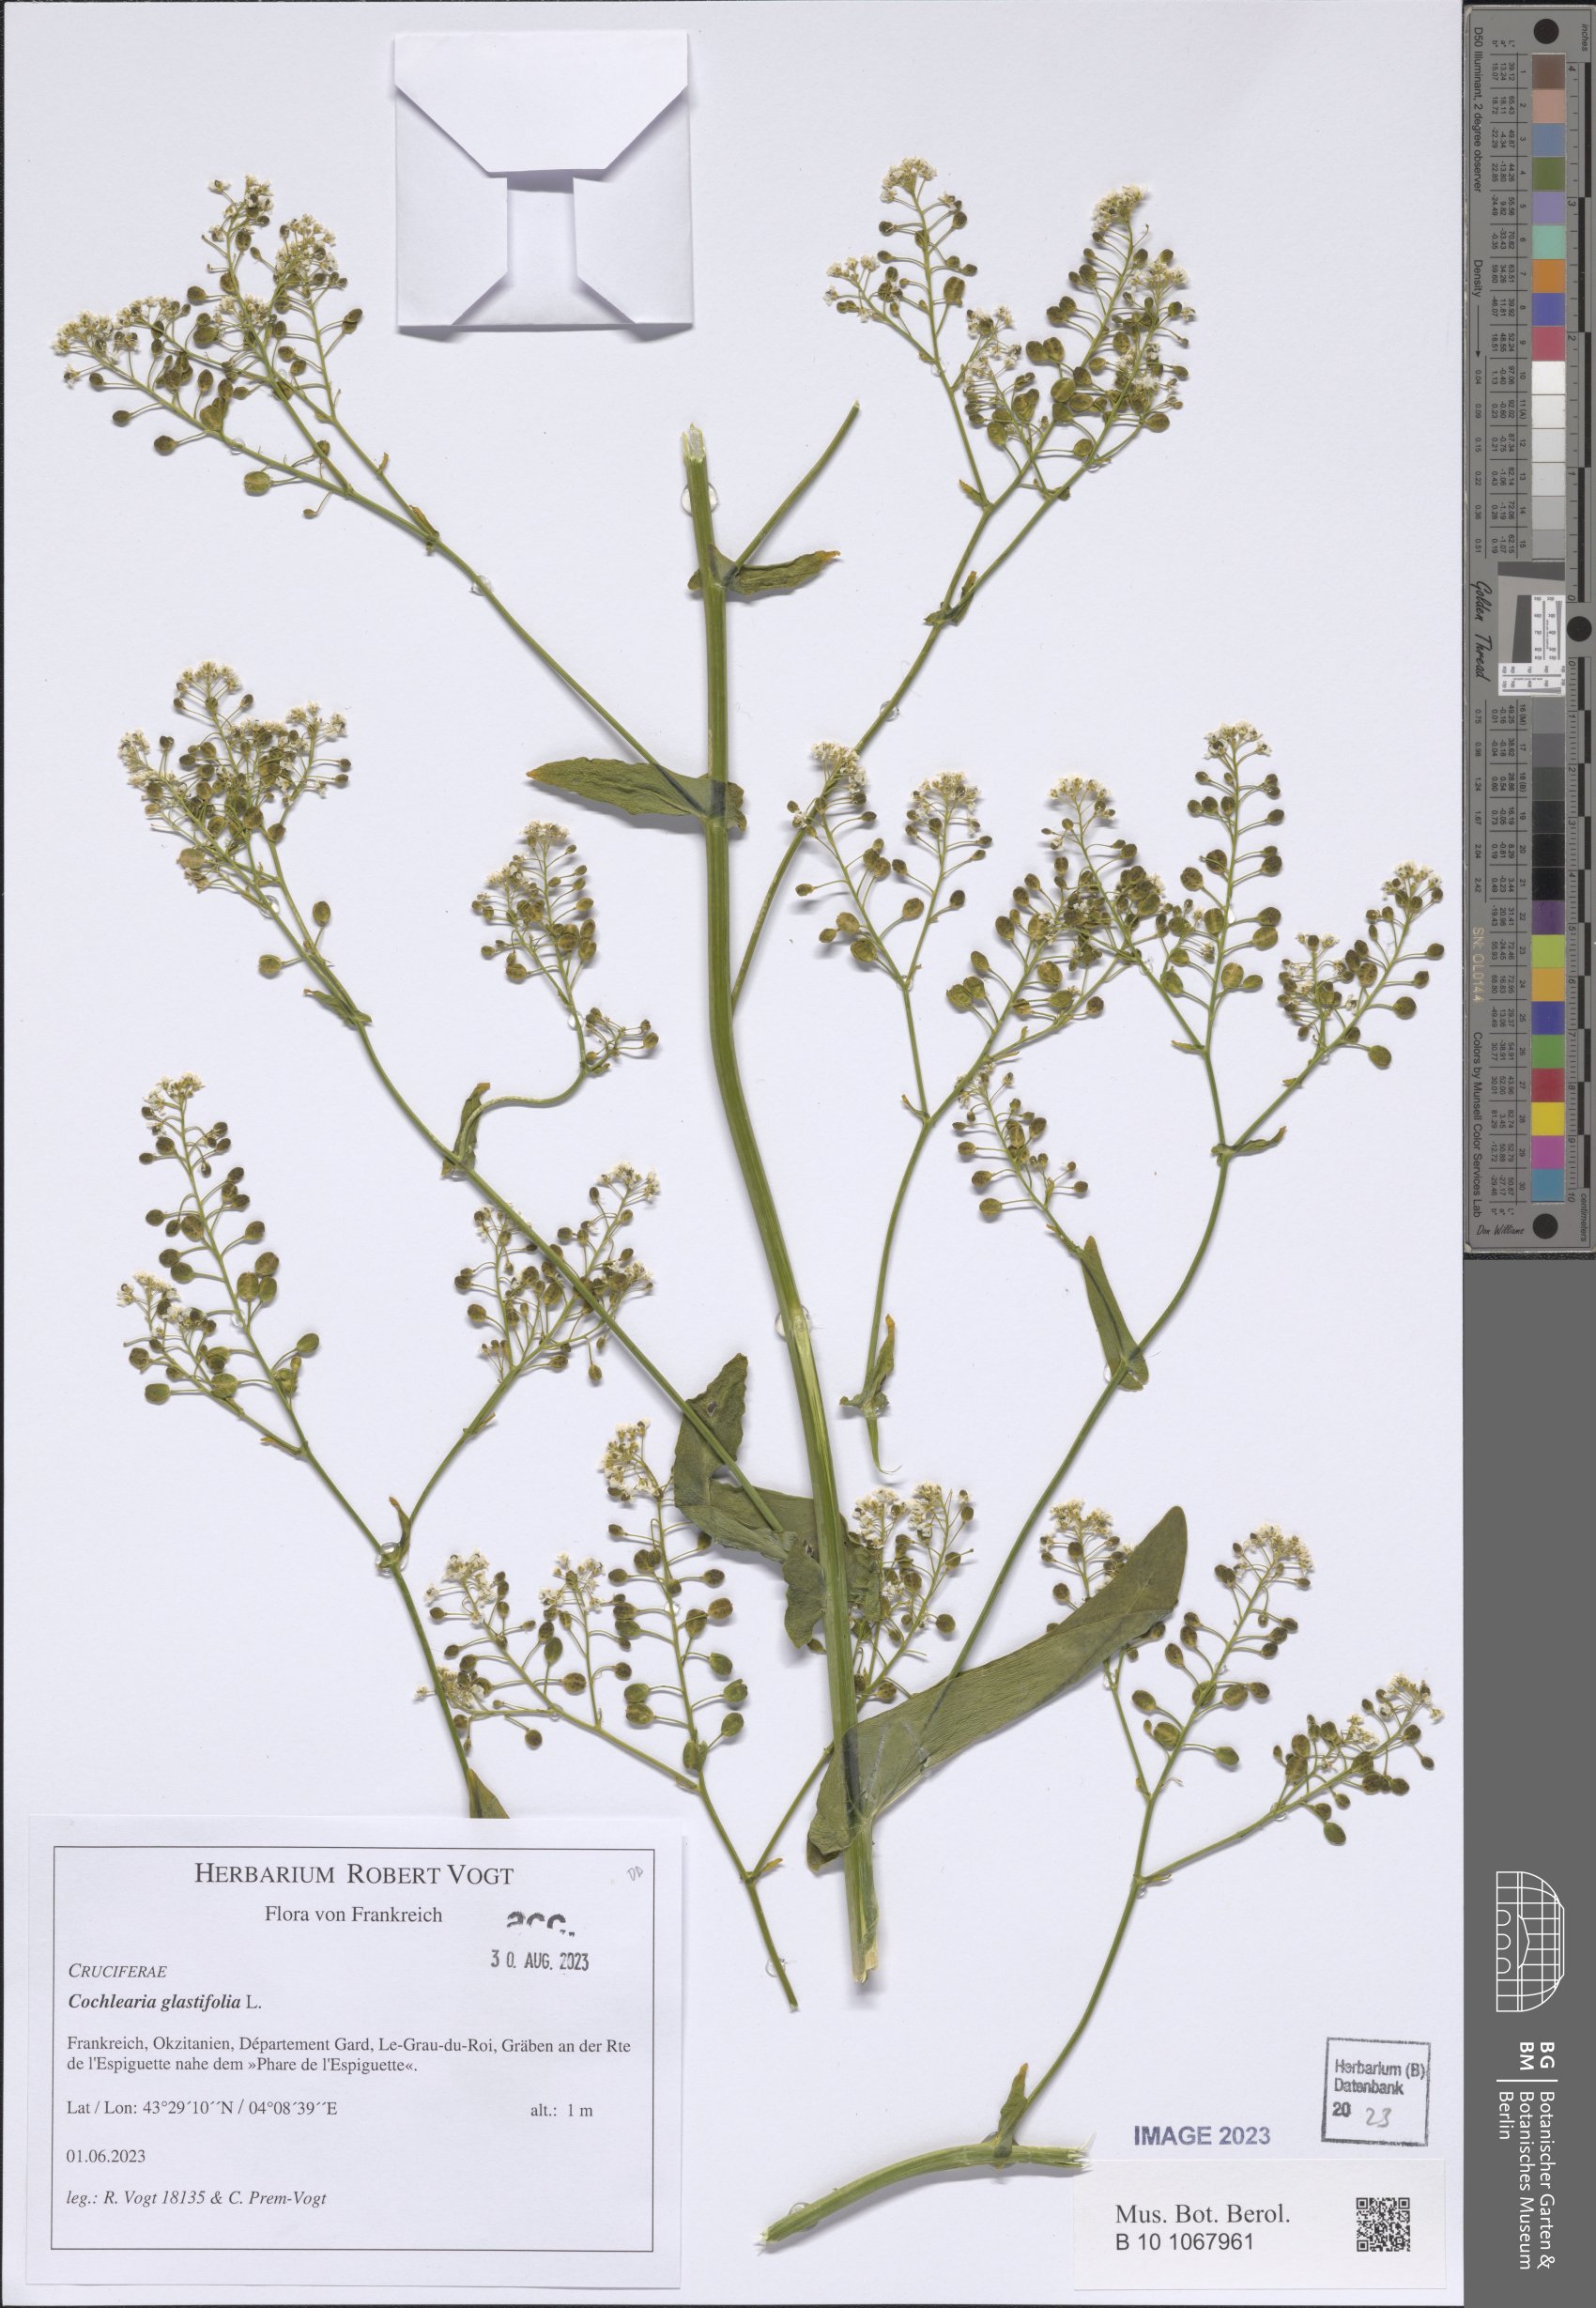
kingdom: Plantae
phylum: Tracheophyta
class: Magnoliopsida
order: Brassicales
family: Brassicaceae
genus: Ionopsidium
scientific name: Ionopsidium glastifolium
